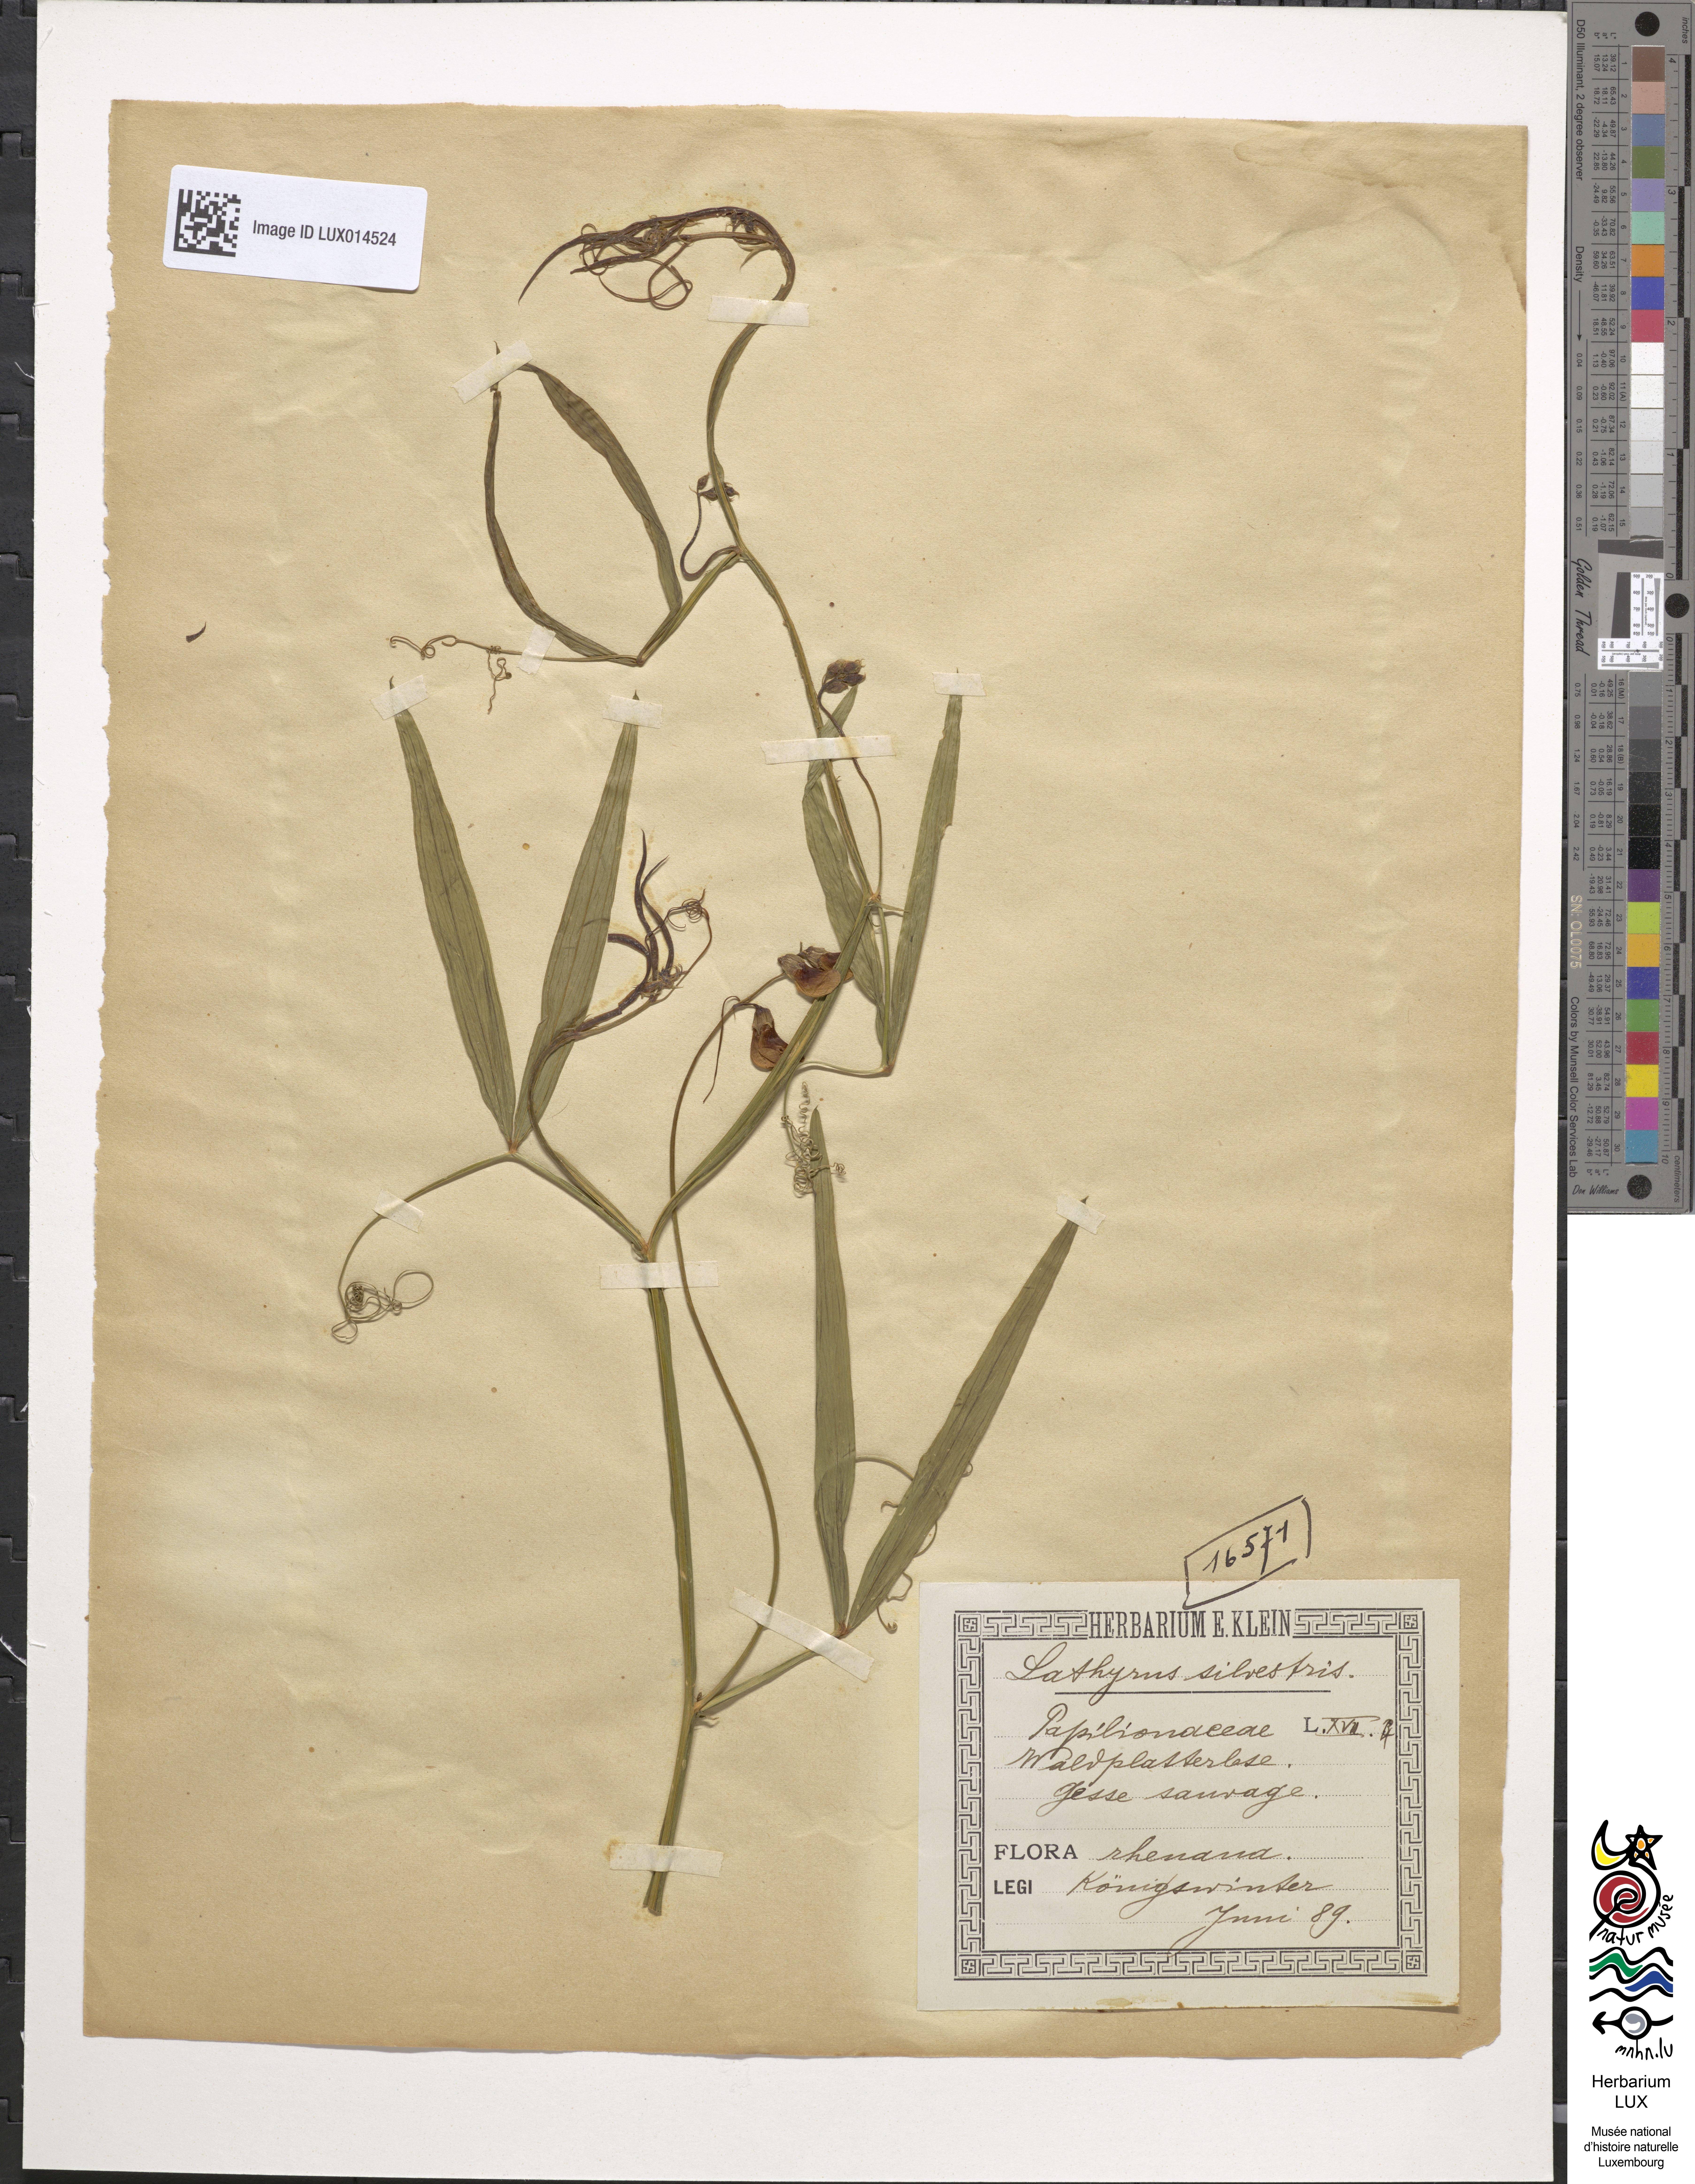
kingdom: Plantae
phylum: Tracheophyta
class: Magnoliopsida
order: Fabales
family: Fabaceae
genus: Lathyrus
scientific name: Lathyrus sylvestris
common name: Flat pea
